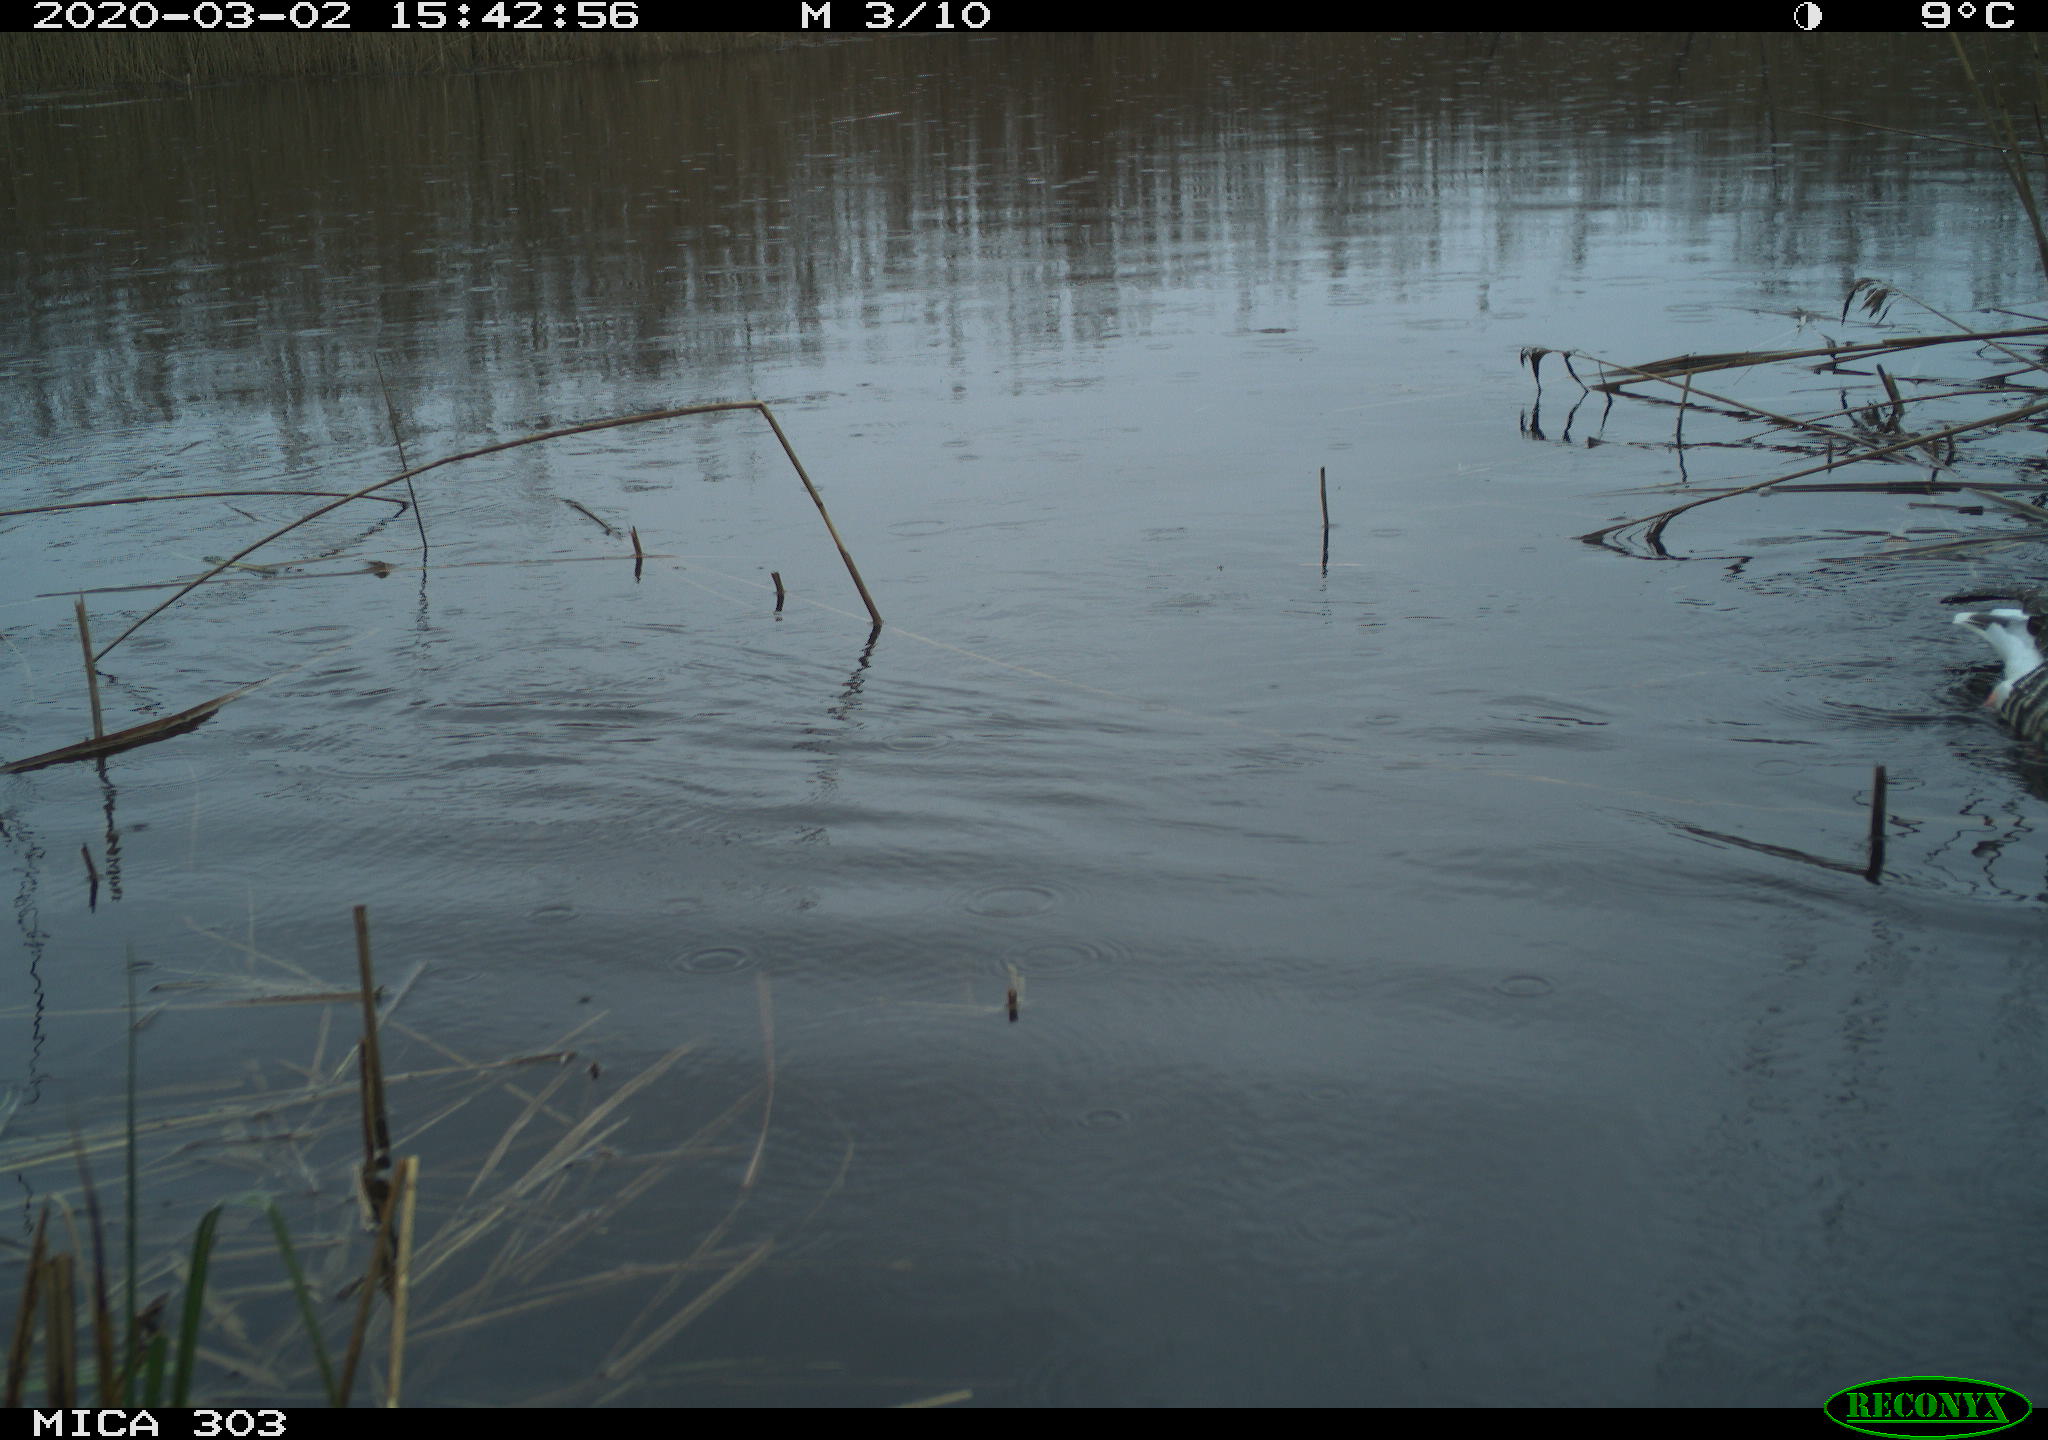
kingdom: Animalia
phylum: Chordata
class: Aves
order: Anseriformes
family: Anatidae
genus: Anser
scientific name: Anser anser
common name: Greylag goose
